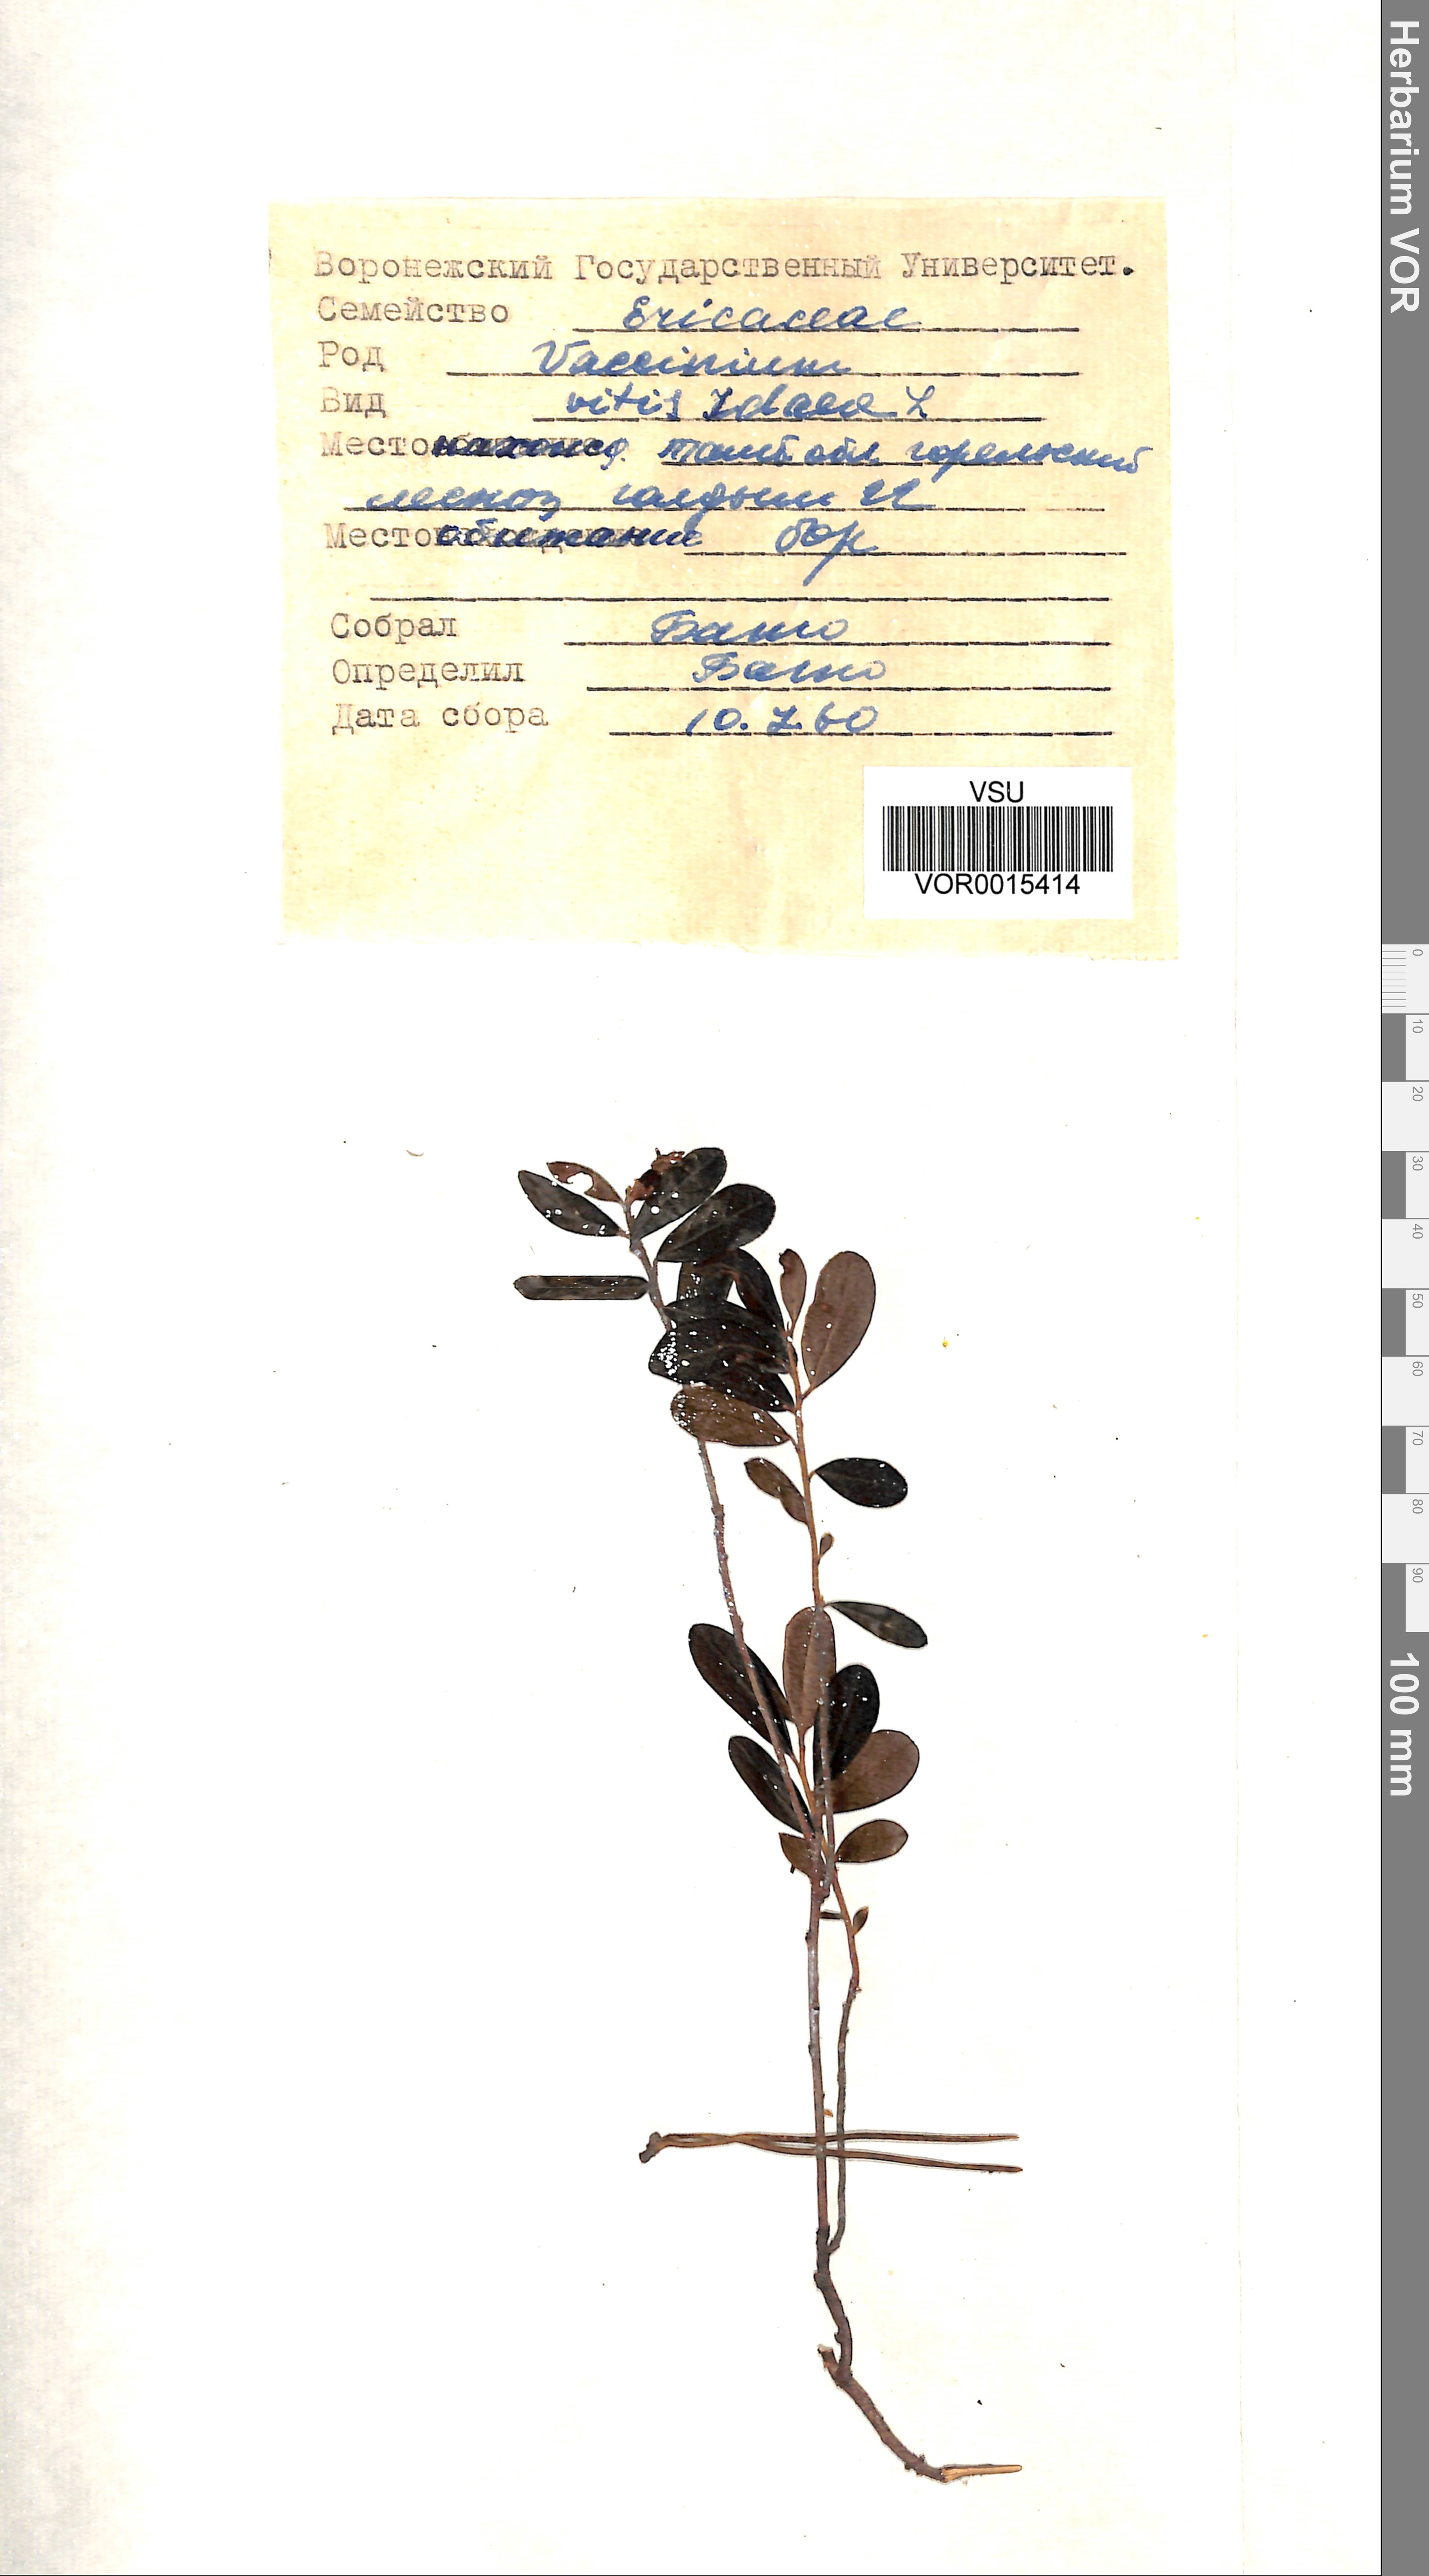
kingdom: Plantae
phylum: Tracheophyta
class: Magnoliopsida
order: Ericales
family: Ericaceae
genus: Vaccinium
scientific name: Vaccinium vitis-idaea
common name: Cowberry
